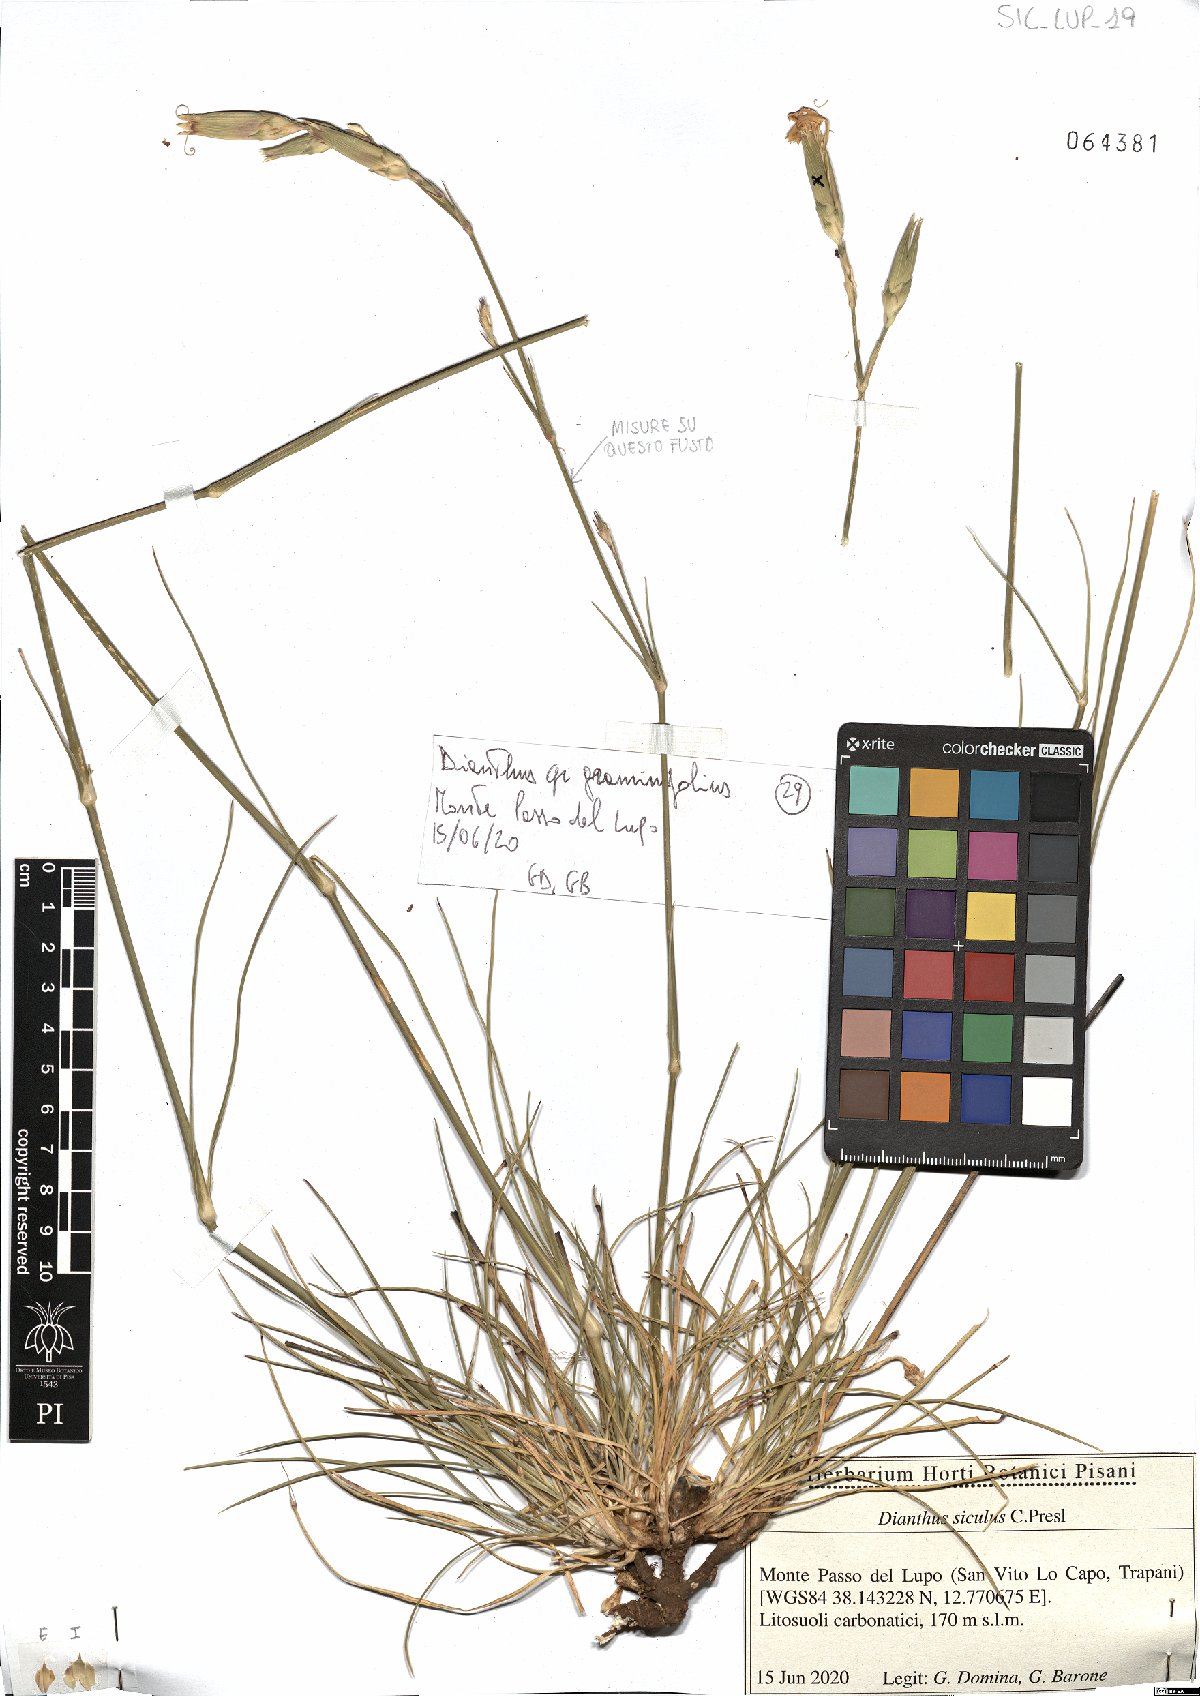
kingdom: Plantae
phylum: Tracheophyta
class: Magnoliopsida
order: Caryophyllales
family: Caryophyllaceae
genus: Dianthus
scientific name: Dianthus siculus
